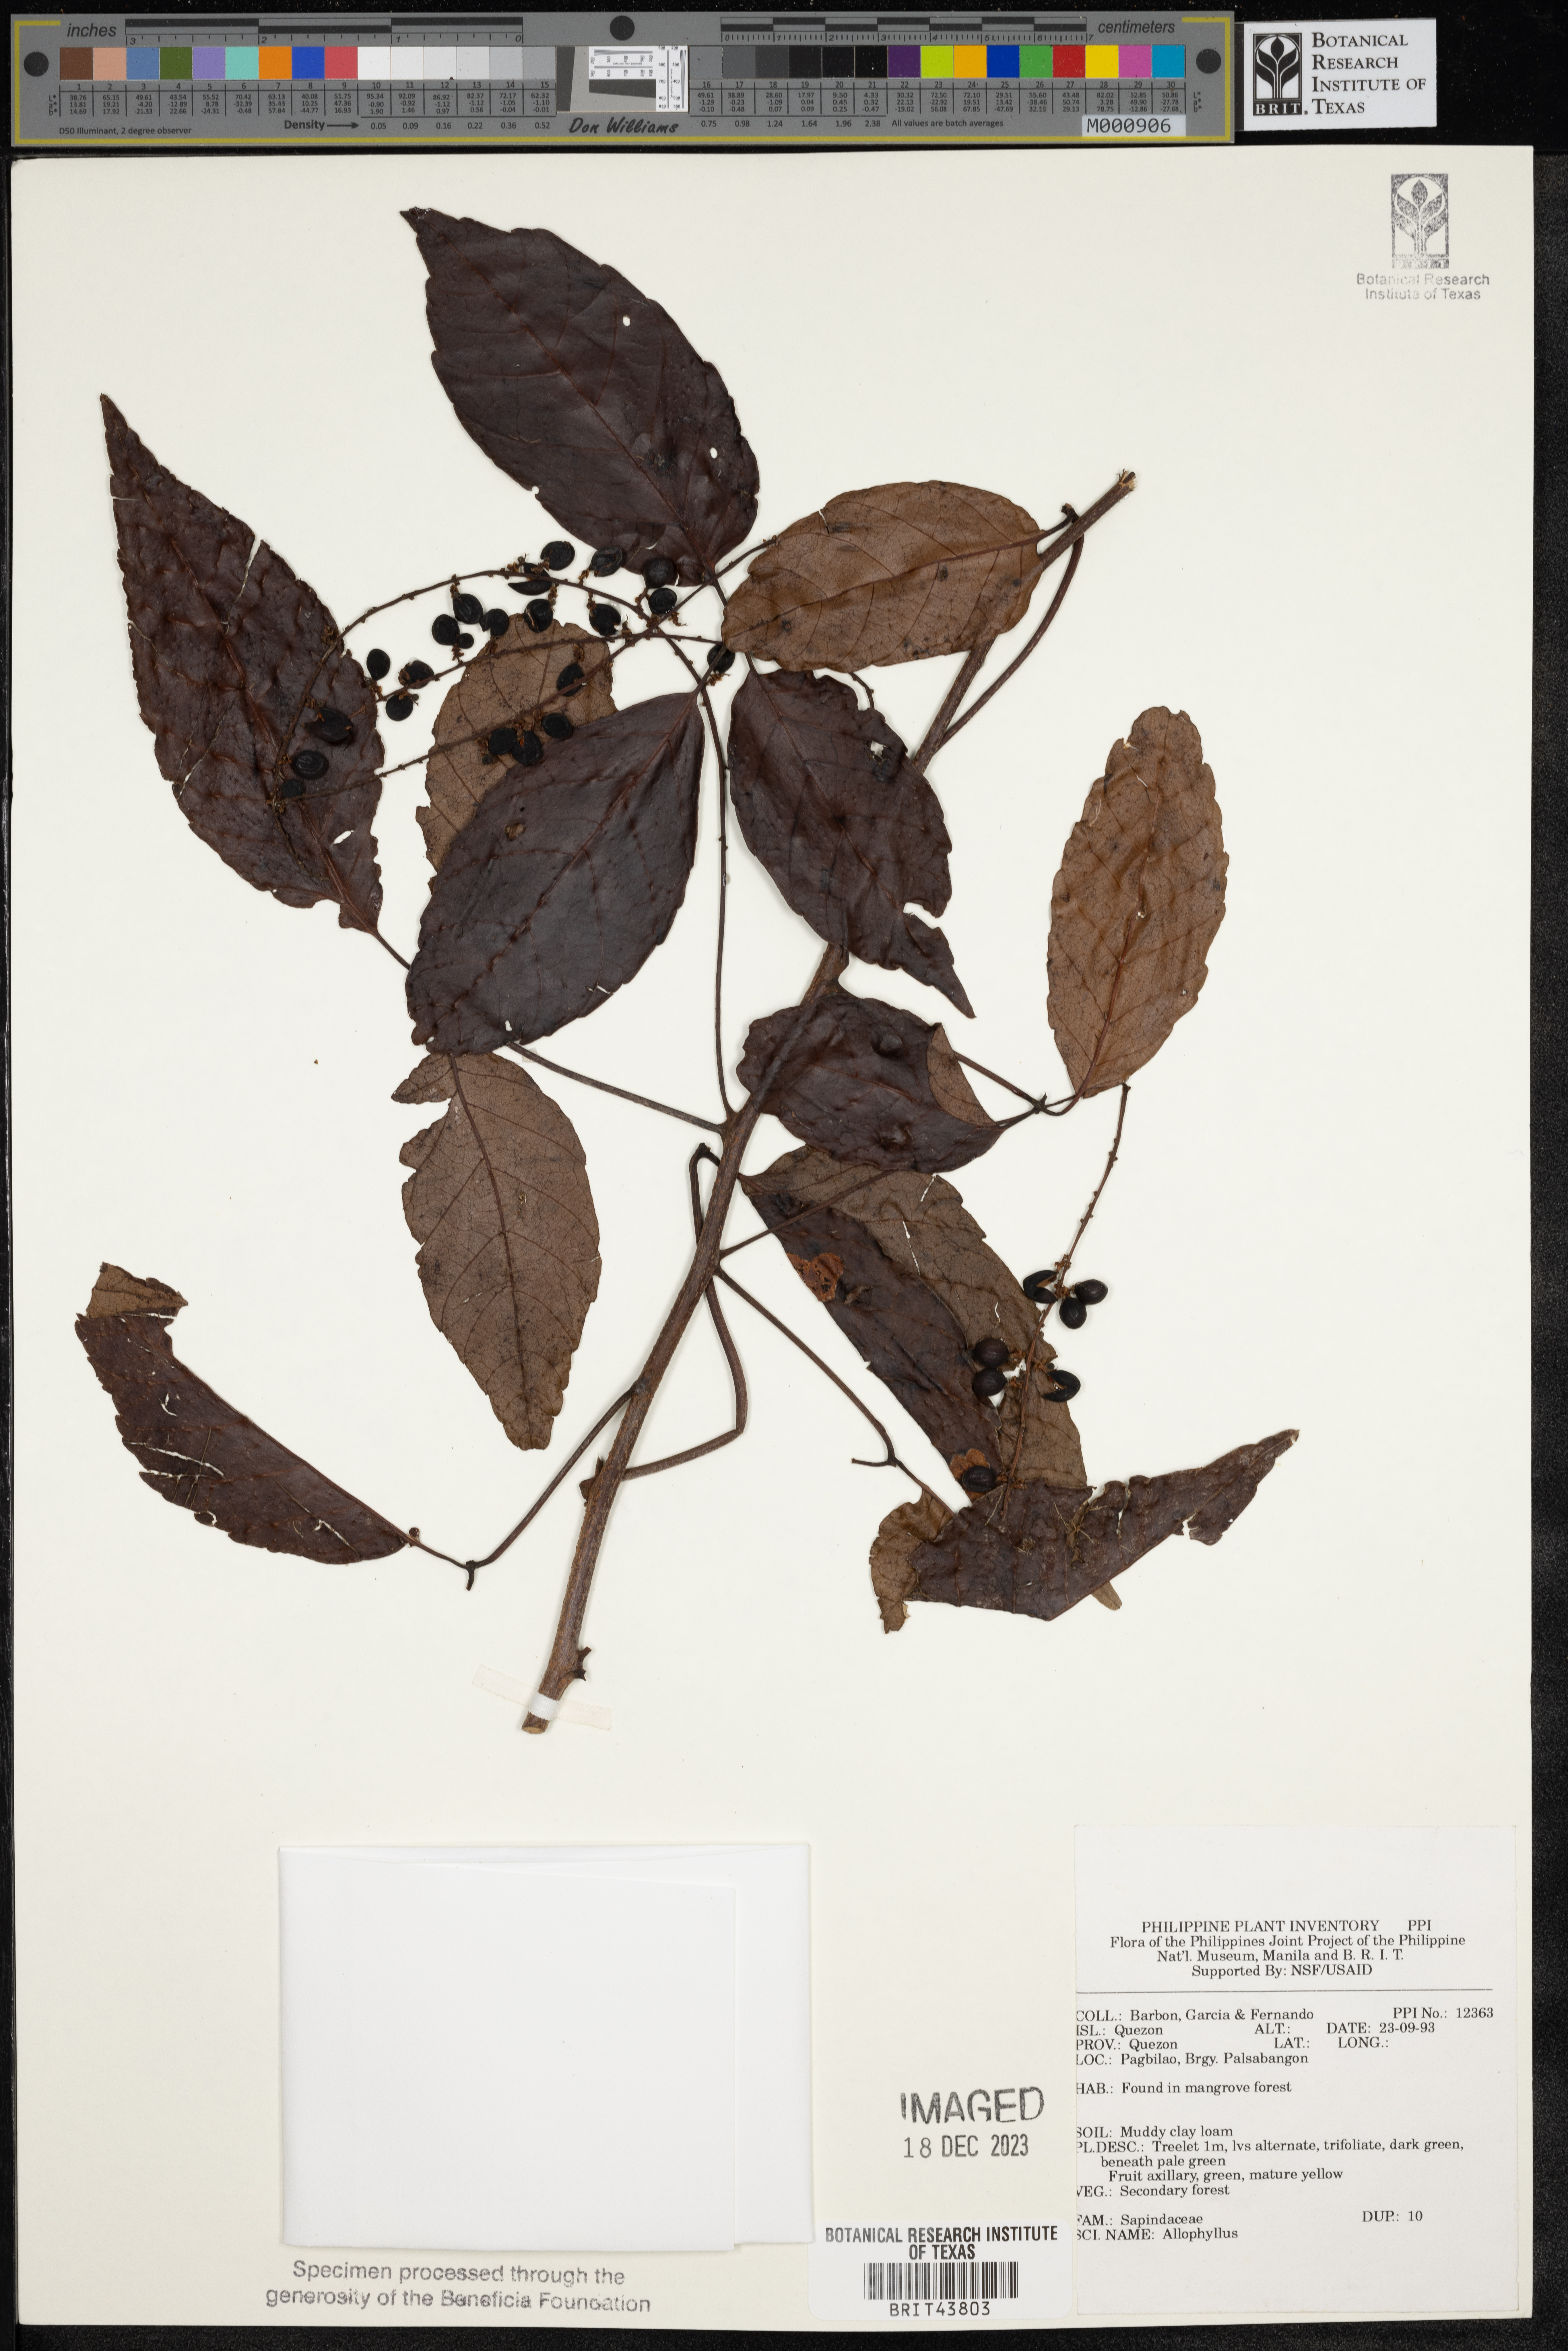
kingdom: Plantae
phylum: Tracheophyta
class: Magnoliopsida
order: Sapindales
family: Sapindaceae
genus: Allophylus
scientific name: Allophylus
